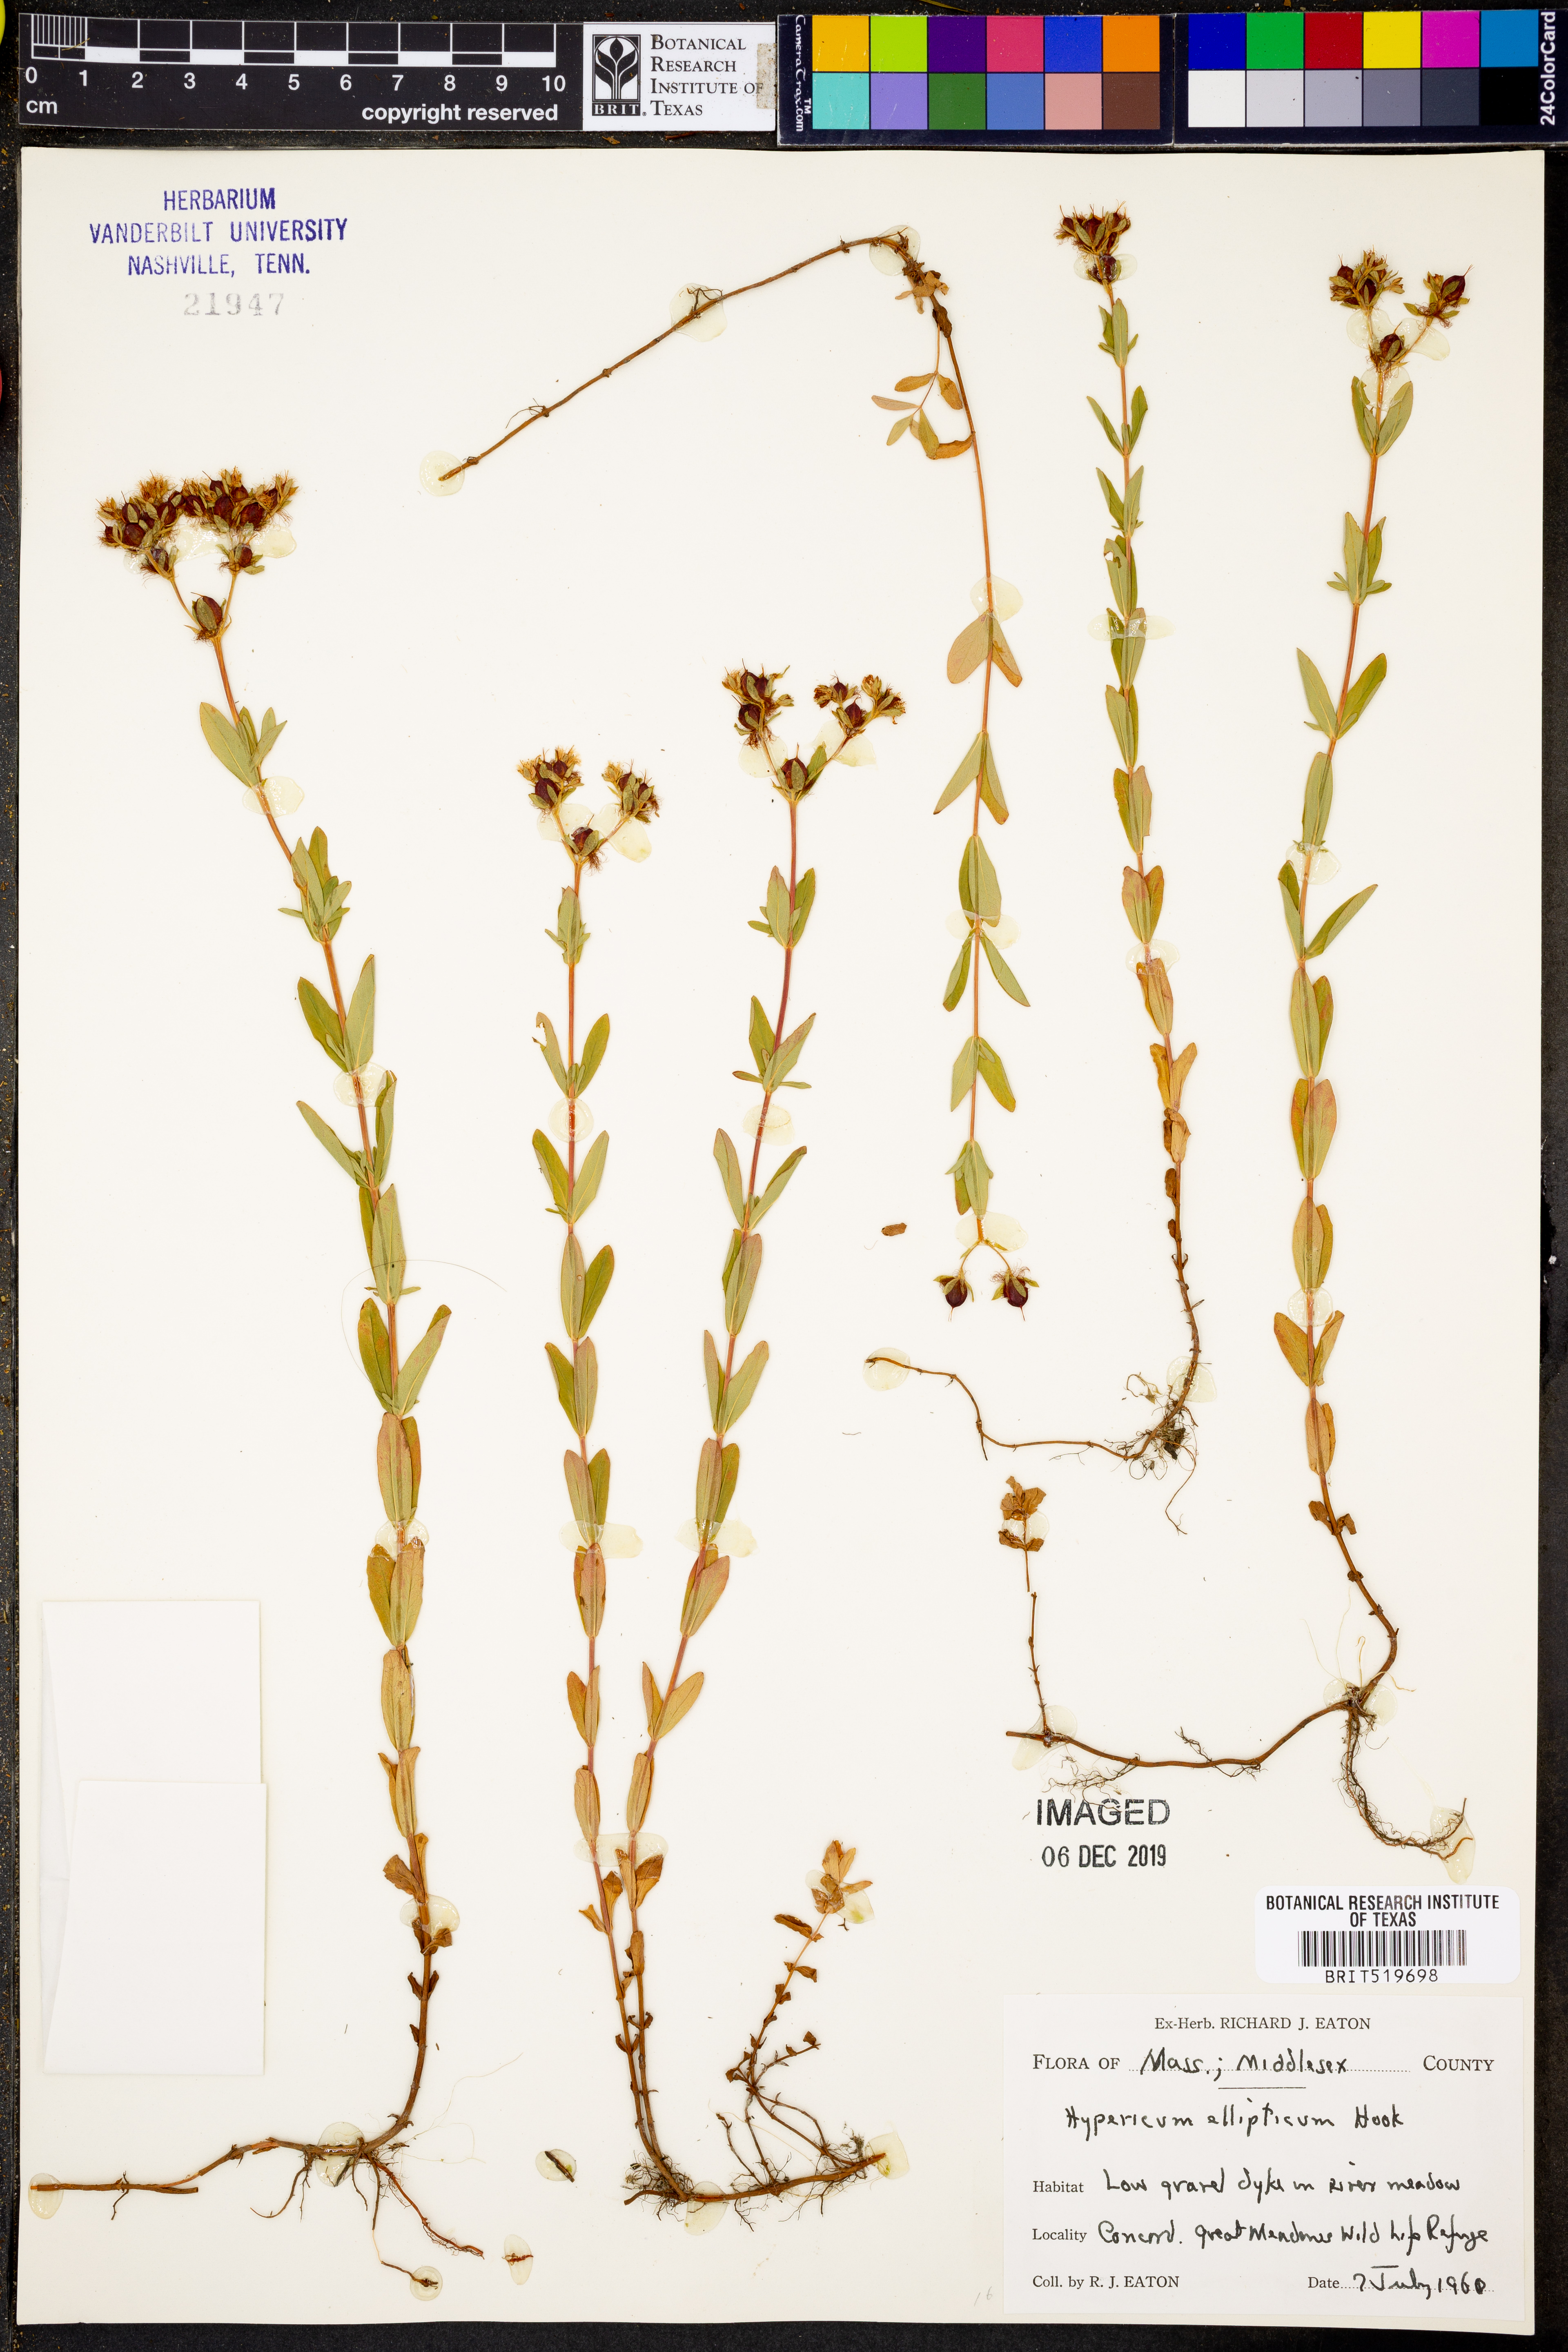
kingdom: Plantae
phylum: Tracheophyta
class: Magnoliopsida
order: Malpighiales
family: Hypericaceae
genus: Hypericum
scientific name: Hypericum ellipticum
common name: Elliptic st. john's-wort
